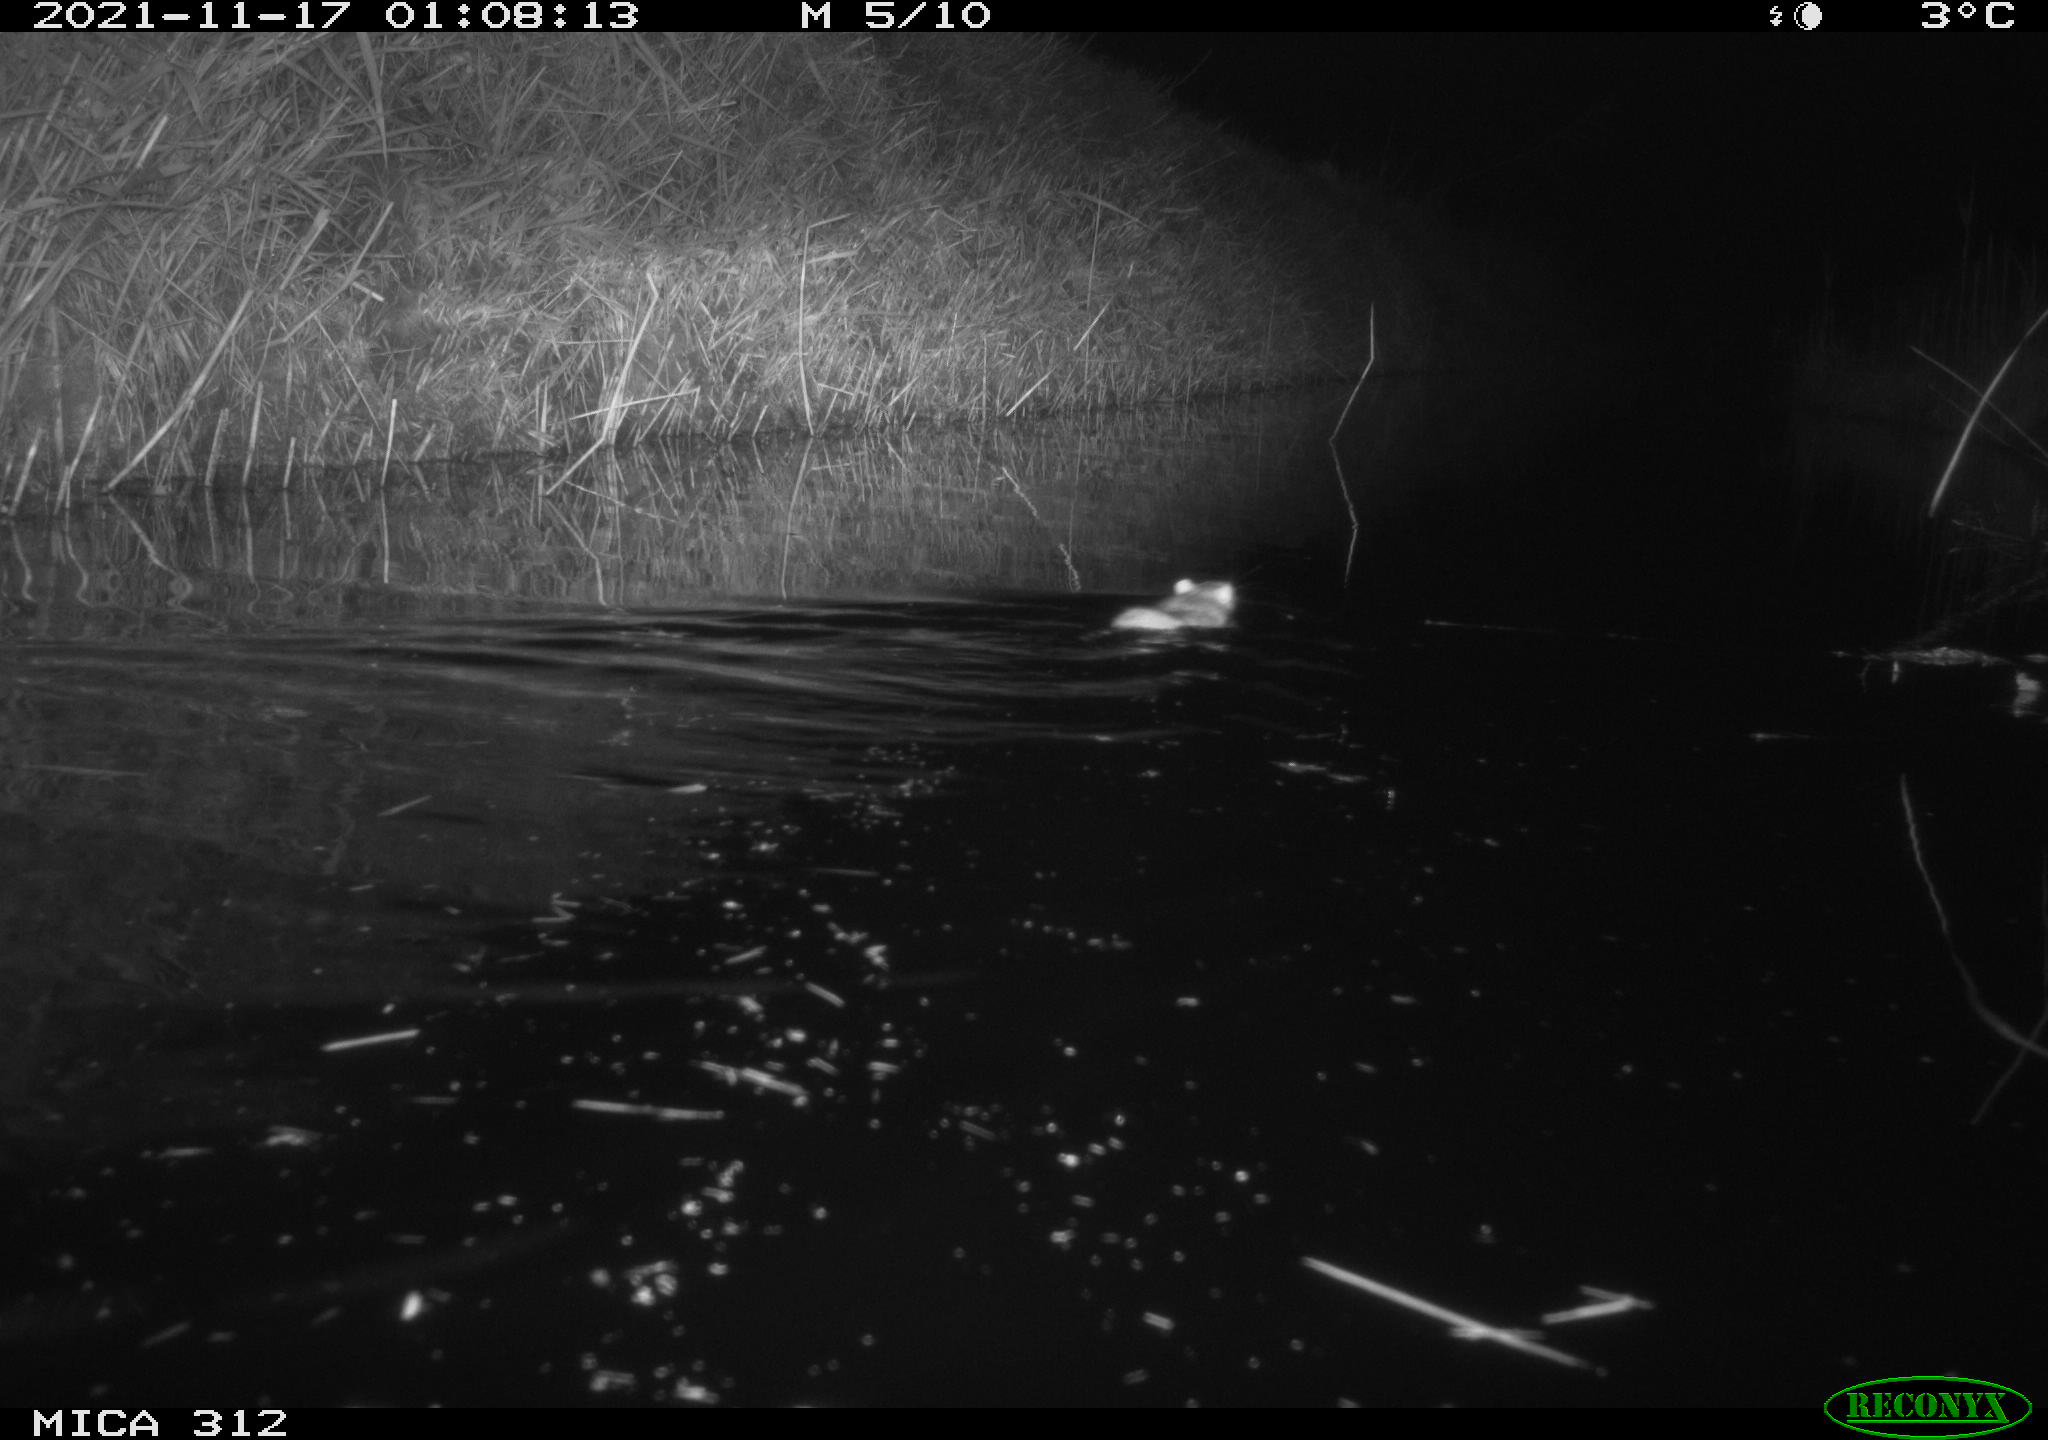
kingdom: Animalia
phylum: Chordata
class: Mammalia
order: Rodentia
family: Muridae
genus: Rattus
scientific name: Rattus norvegicus
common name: Brown rat
